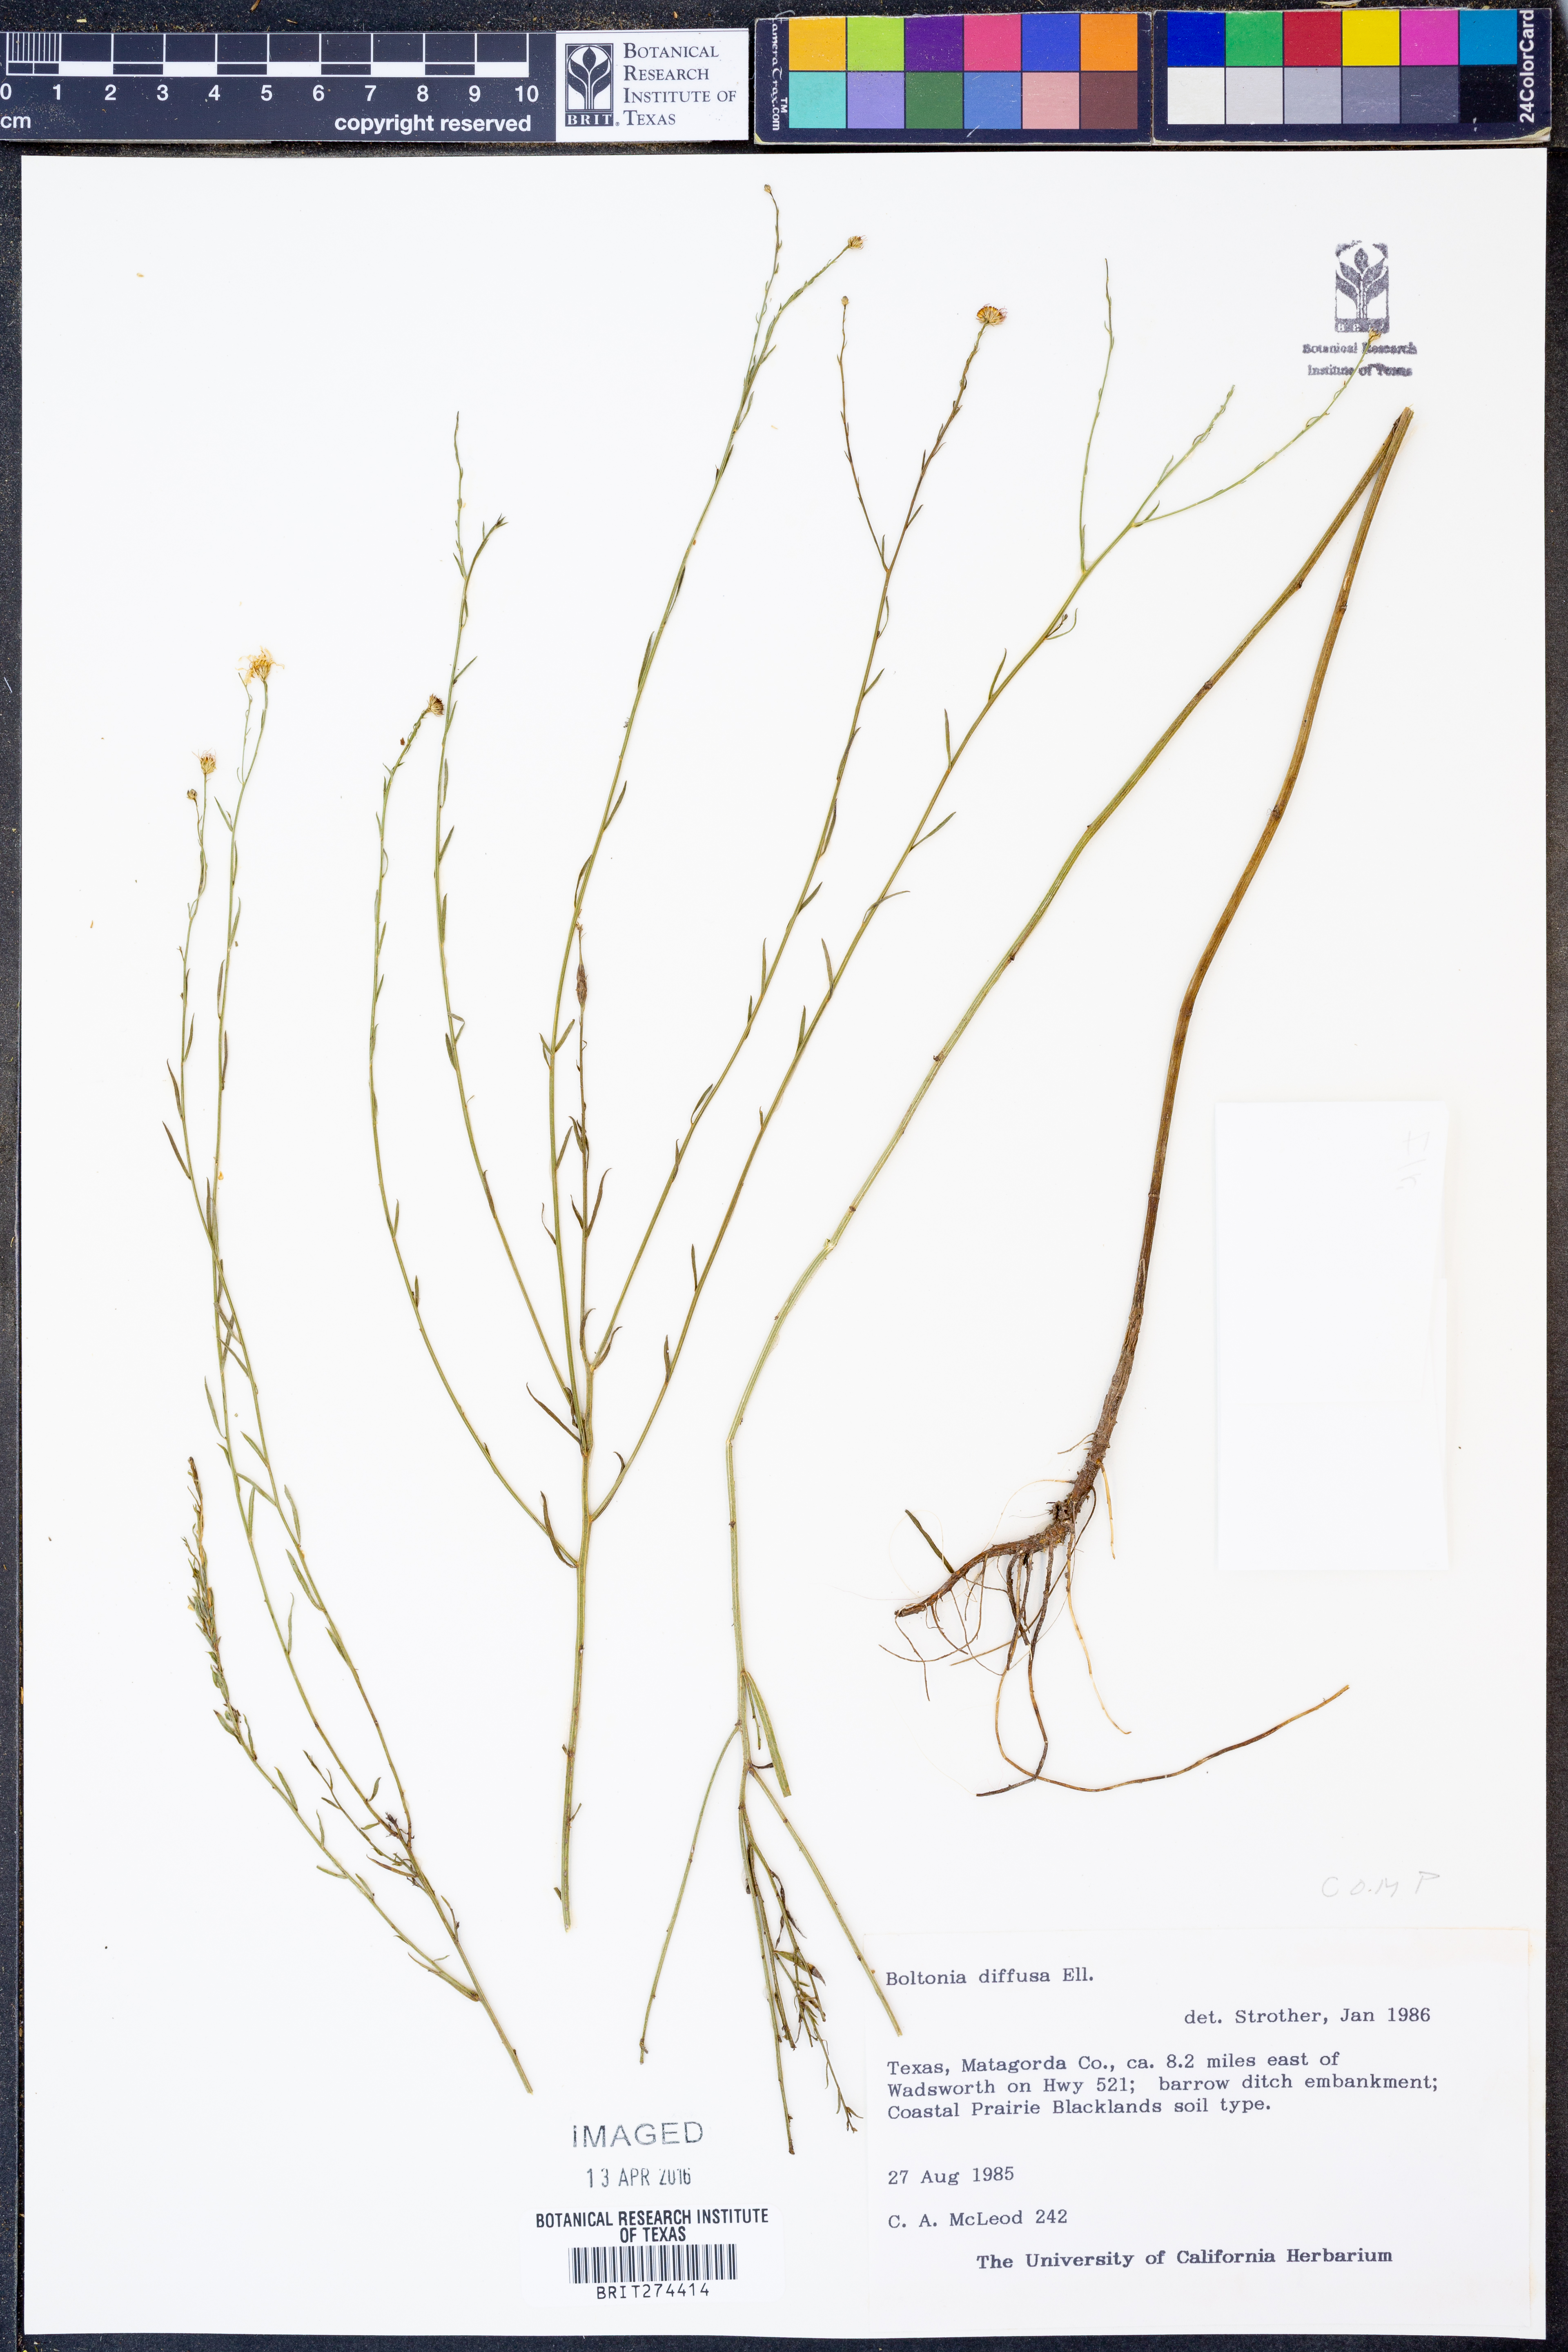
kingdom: Plantae
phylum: Tracheophyta
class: Magnoliopsida
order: Asterales
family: Asteraceae
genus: Boltonia
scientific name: Boltonia diffusa
